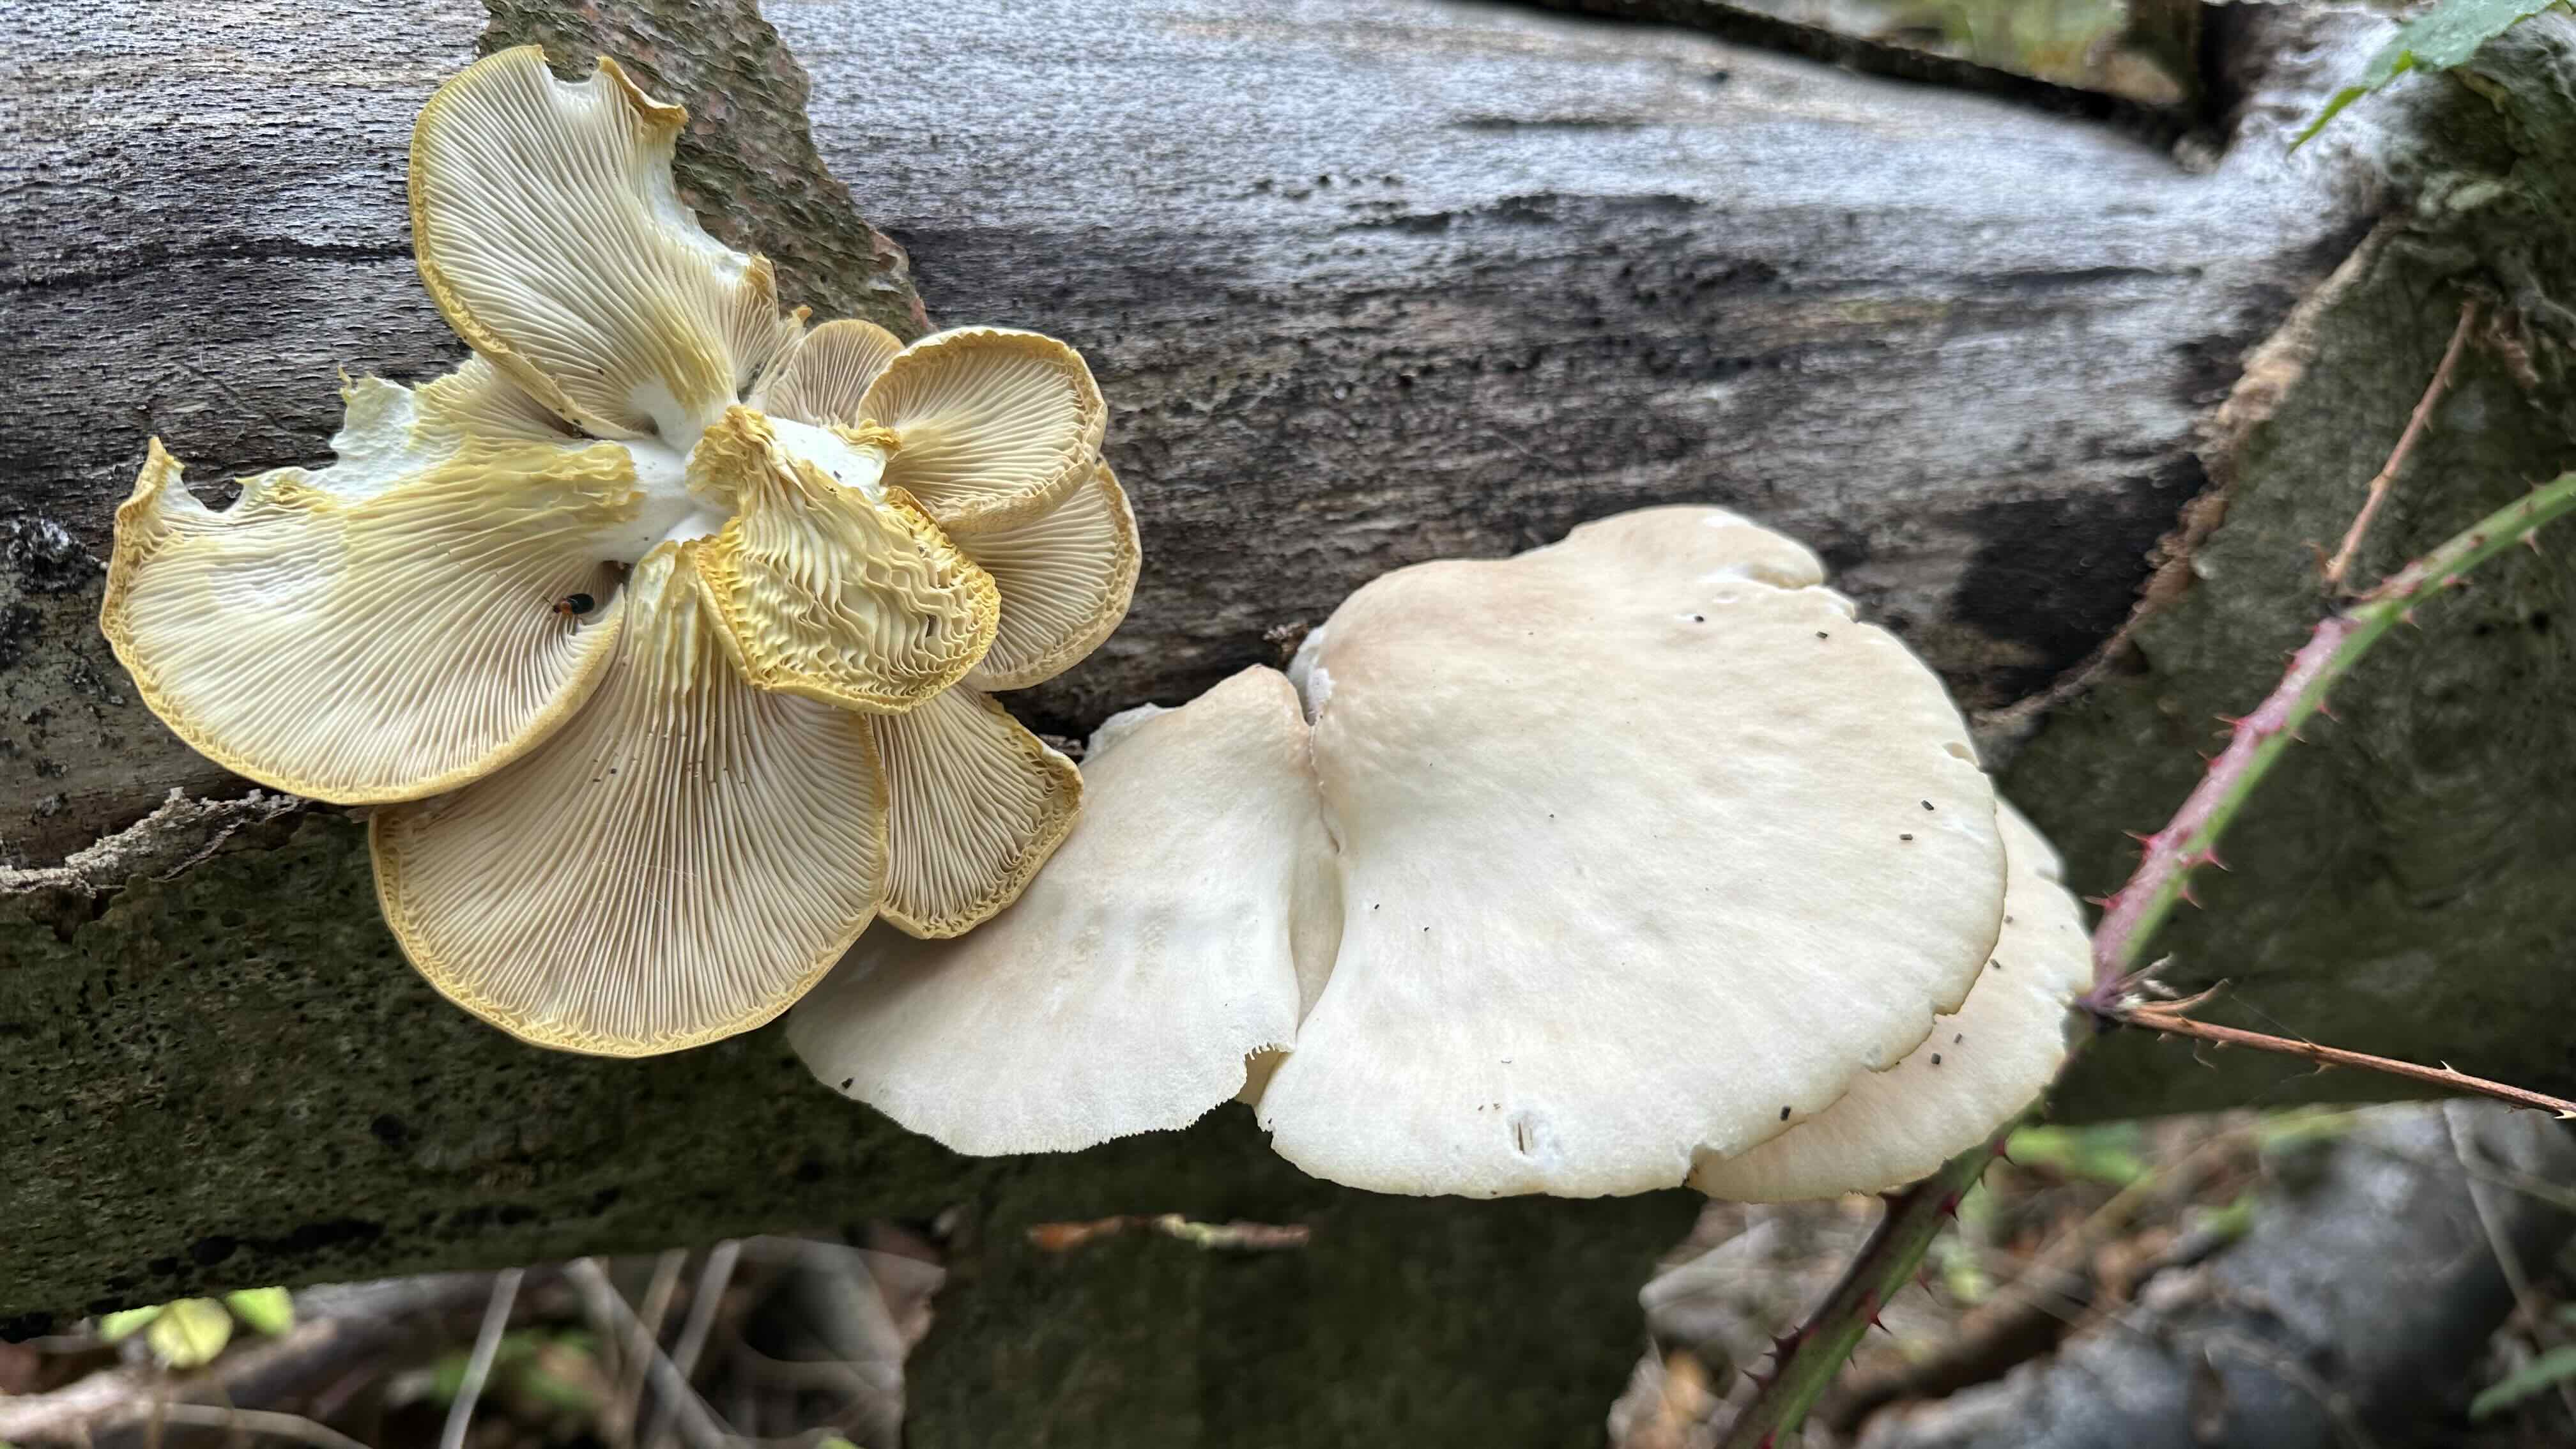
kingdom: Fungi
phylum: Basidiomycota
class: Agaricomycetes
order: Agaricales
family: Pleurotaceae
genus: Pleurotus
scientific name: Pleurotus pulmonarius
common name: sommer-østershat
